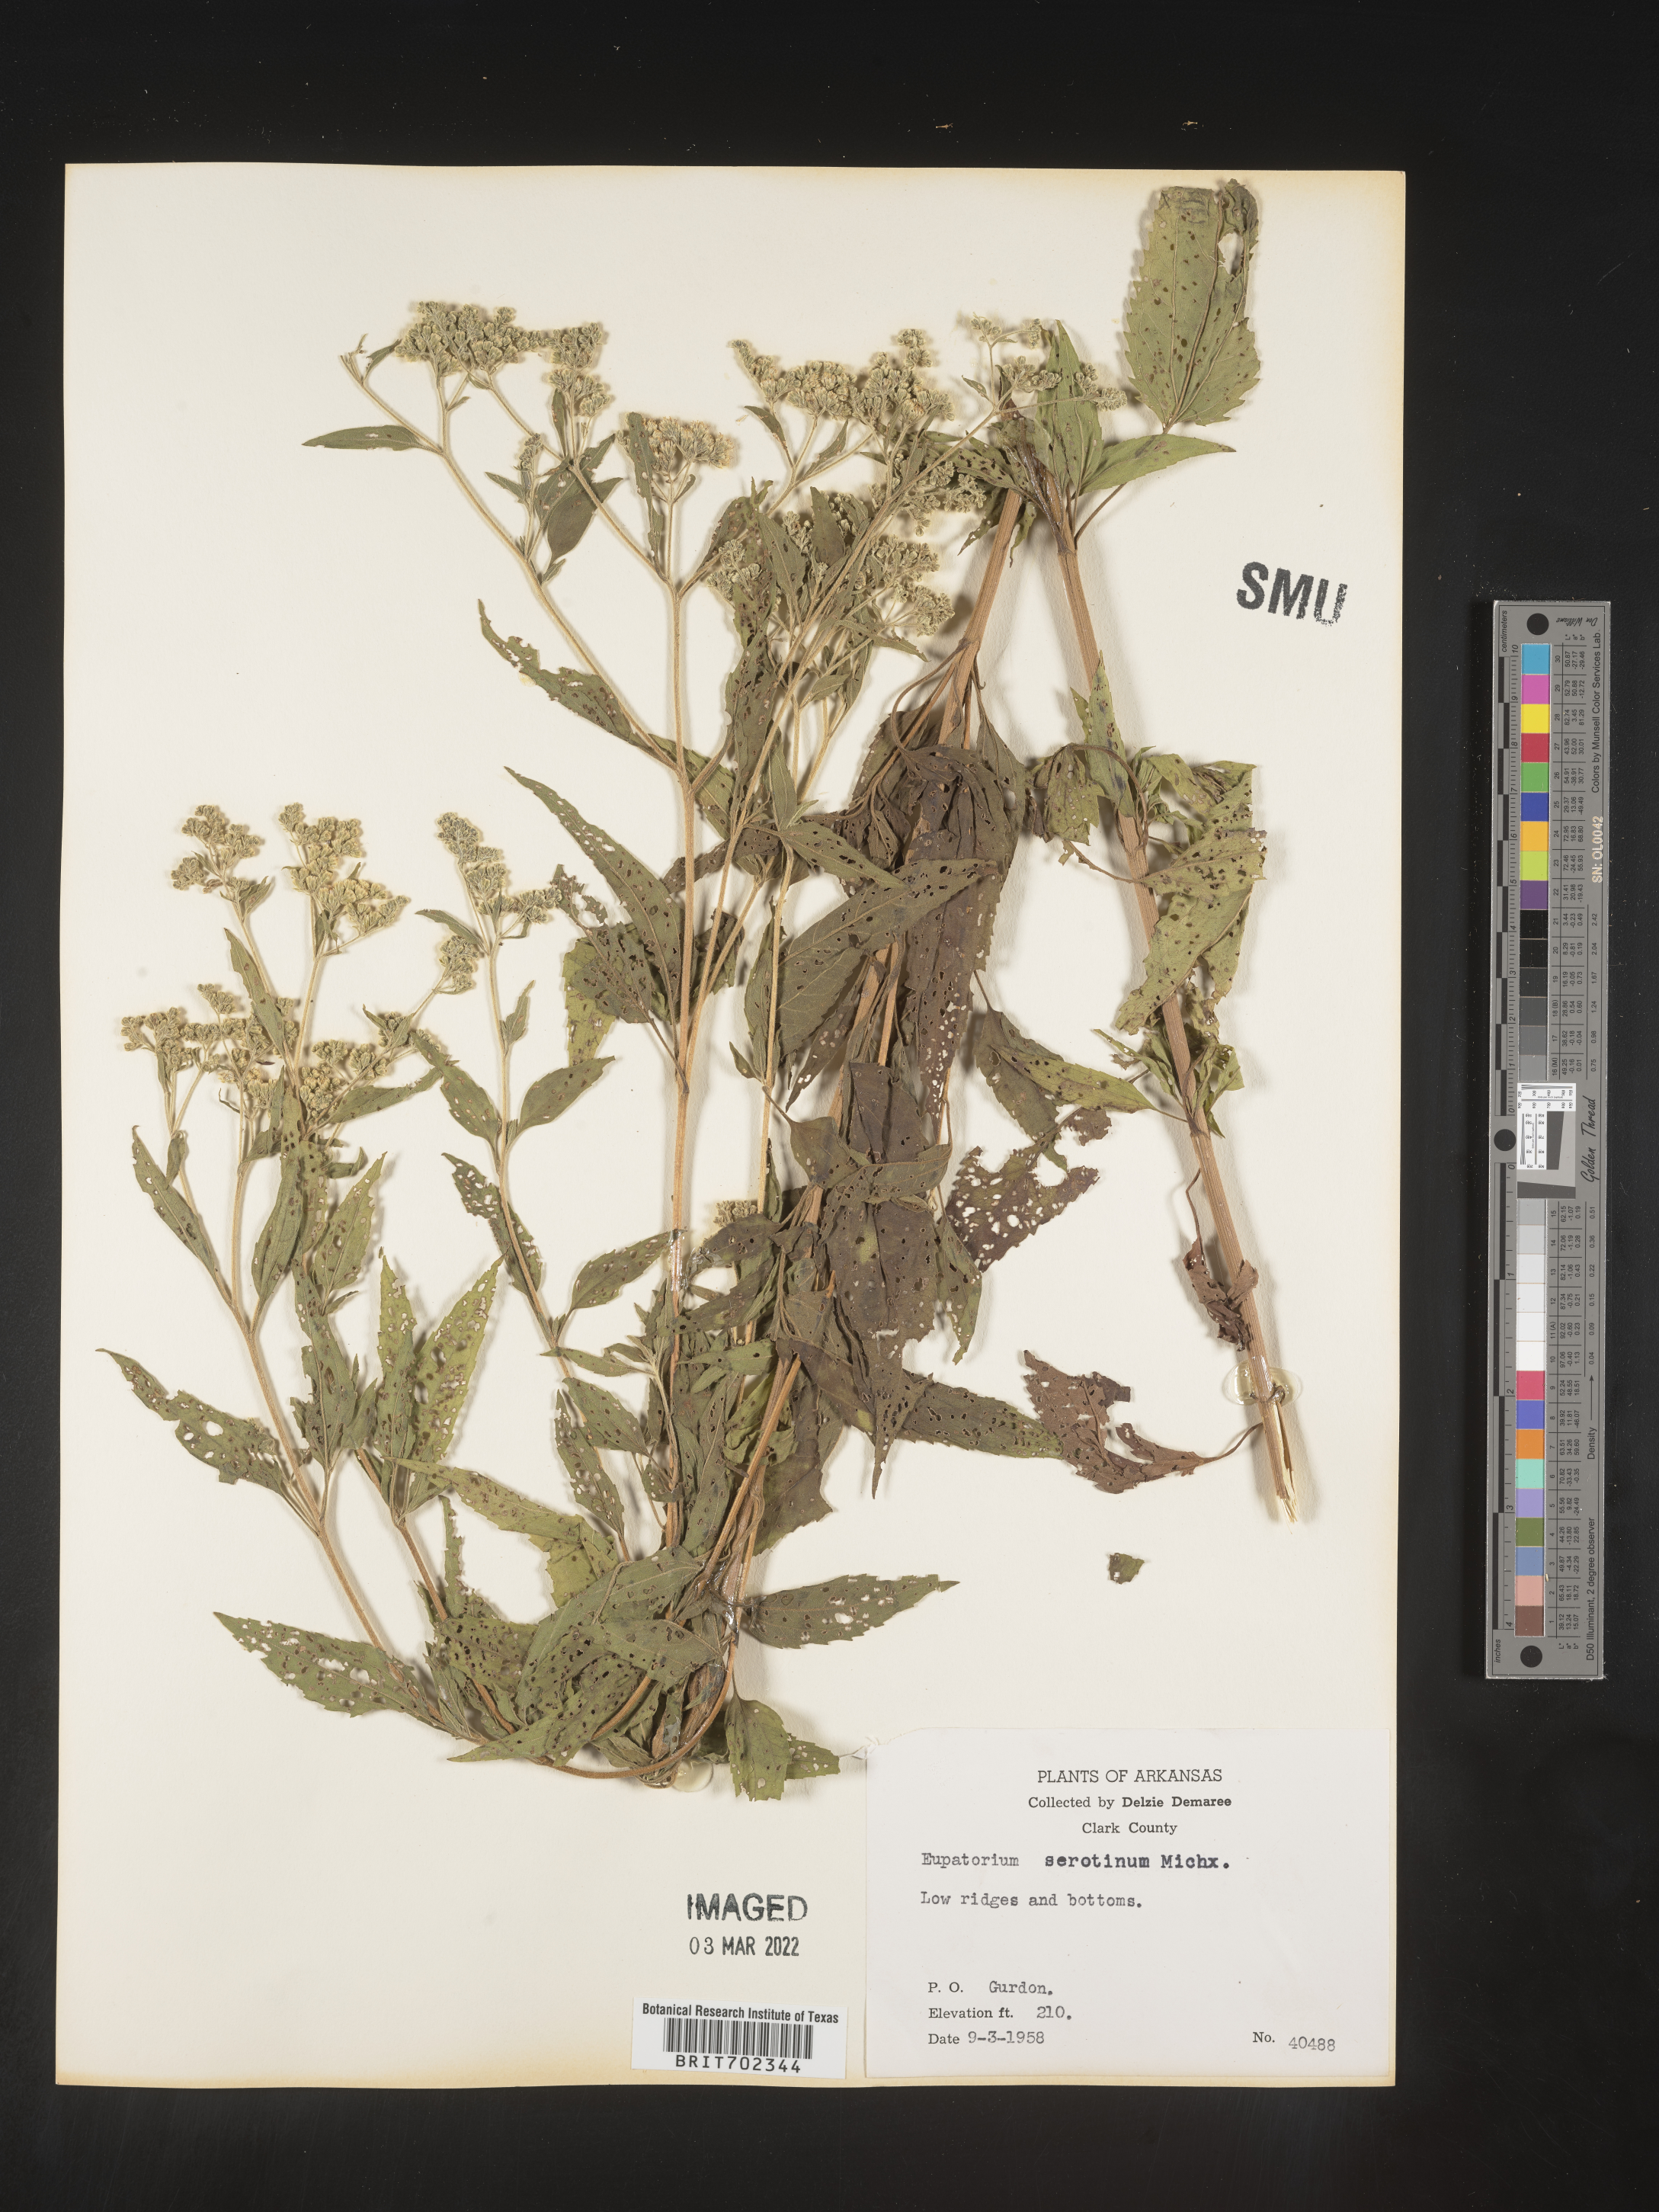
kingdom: Plantae
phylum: Tracheophyta
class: Magnoliopsida
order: Asterales
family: Asteraceae
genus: Eupatorium
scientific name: Eupatorium serotinum
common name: Late boneset
